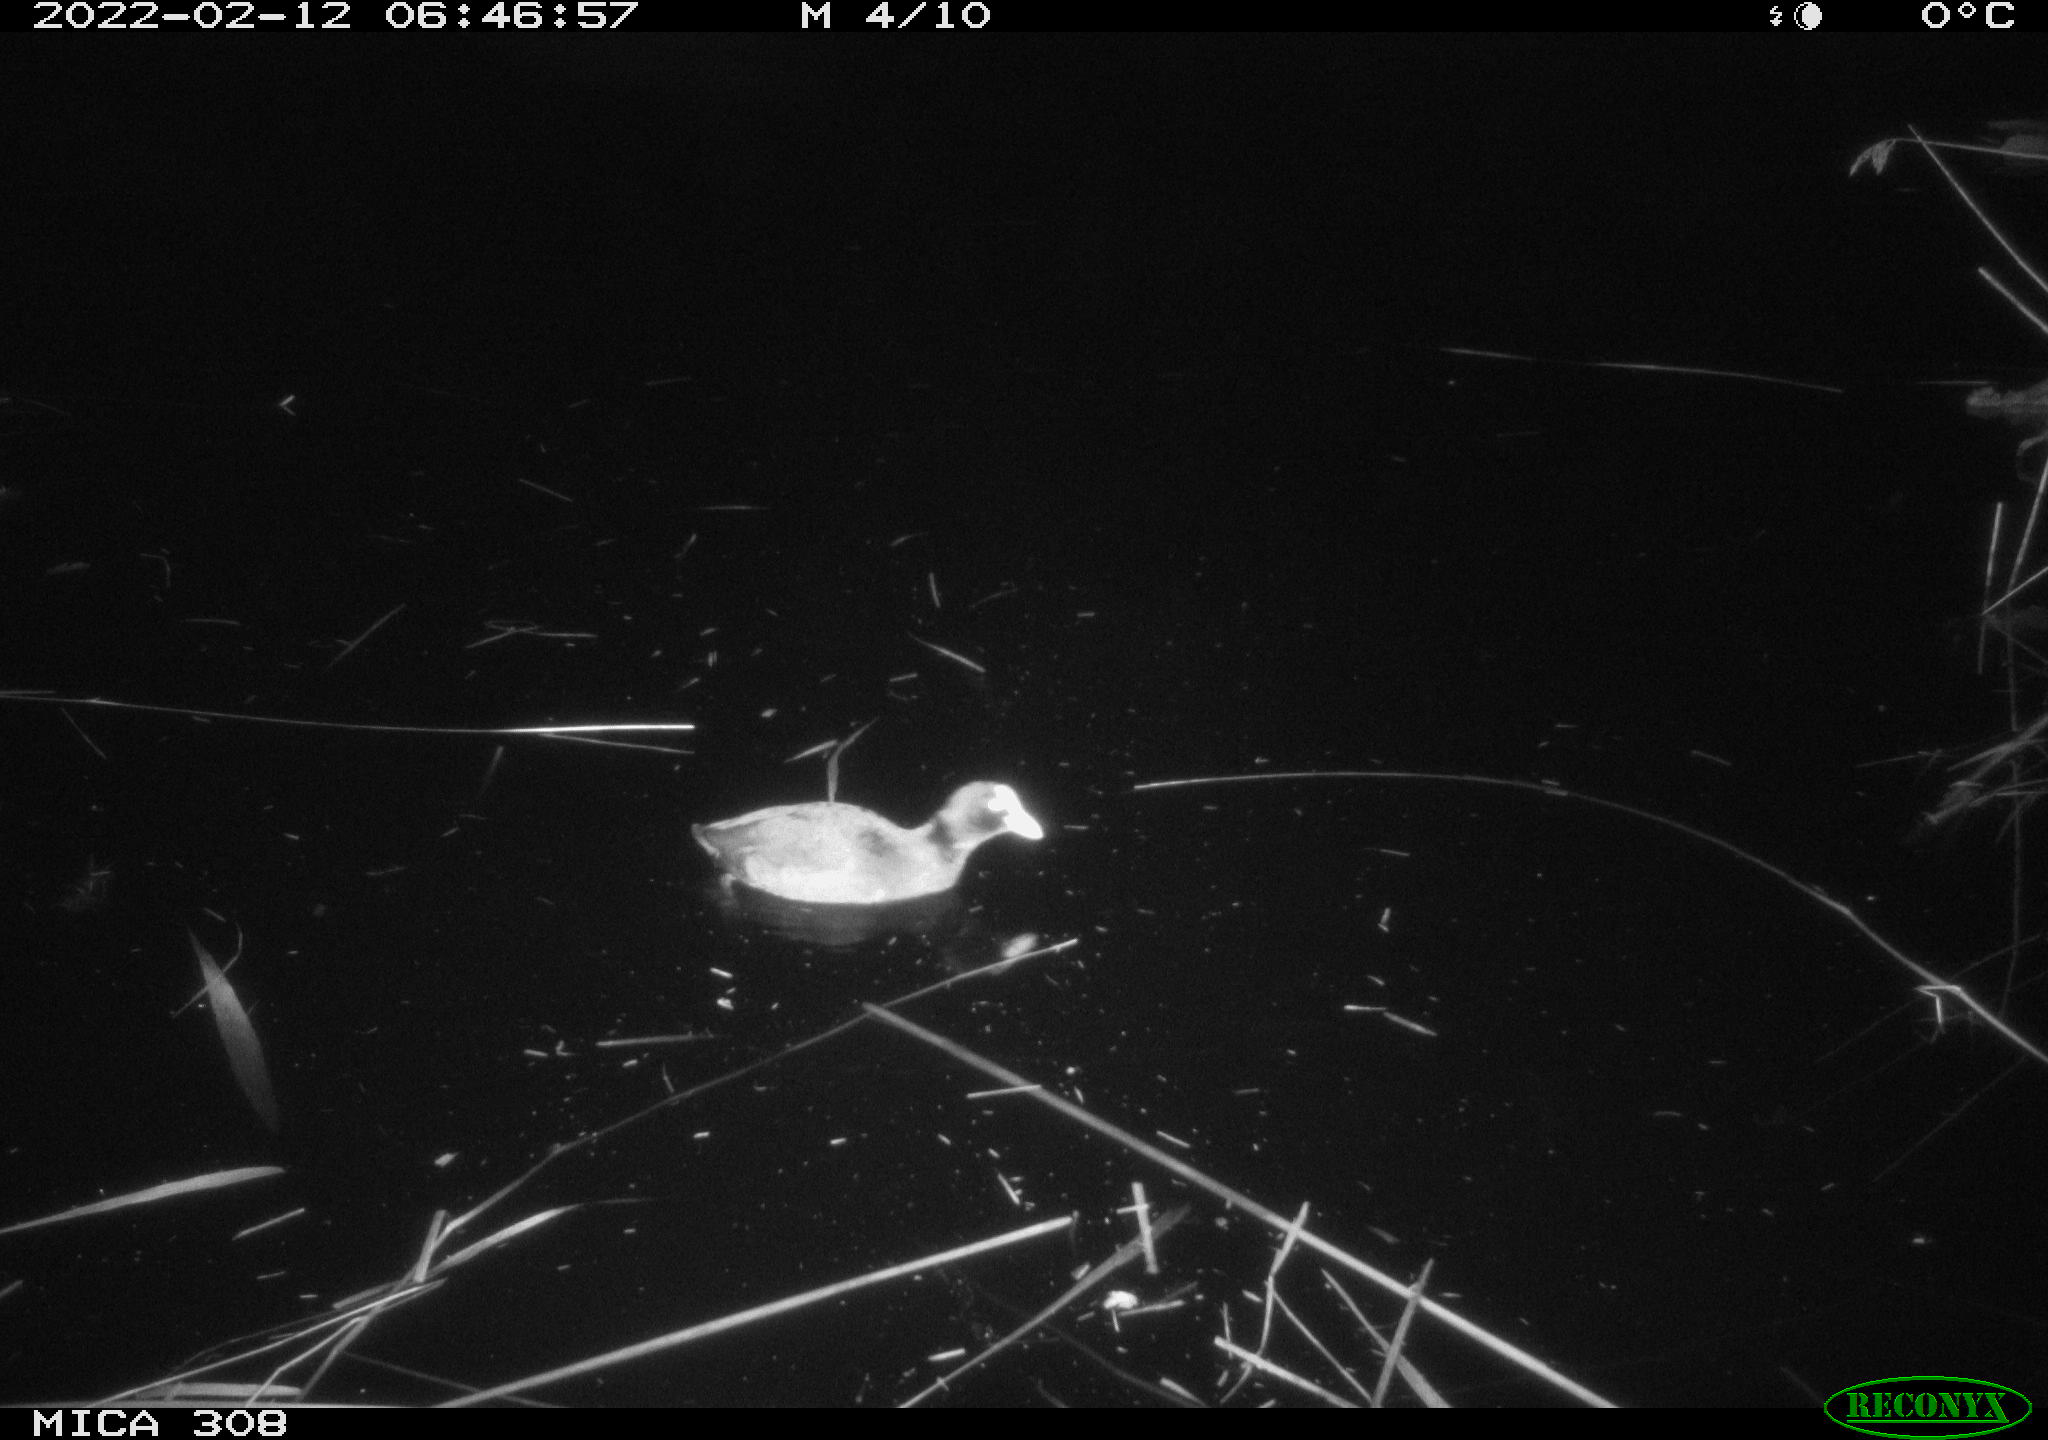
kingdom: Animalia
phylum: Chordata
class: Aves
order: Gruiformes
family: Rallidae
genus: Fulica
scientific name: Fulica atra
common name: Eurasian coot
